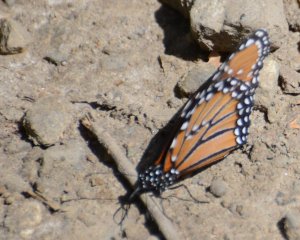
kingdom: Animalia
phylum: Arthropoda
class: Insecta
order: Lepidoptera
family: Nymphalidae
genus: Danaus
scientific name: Danaus gilippus
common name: Queen
